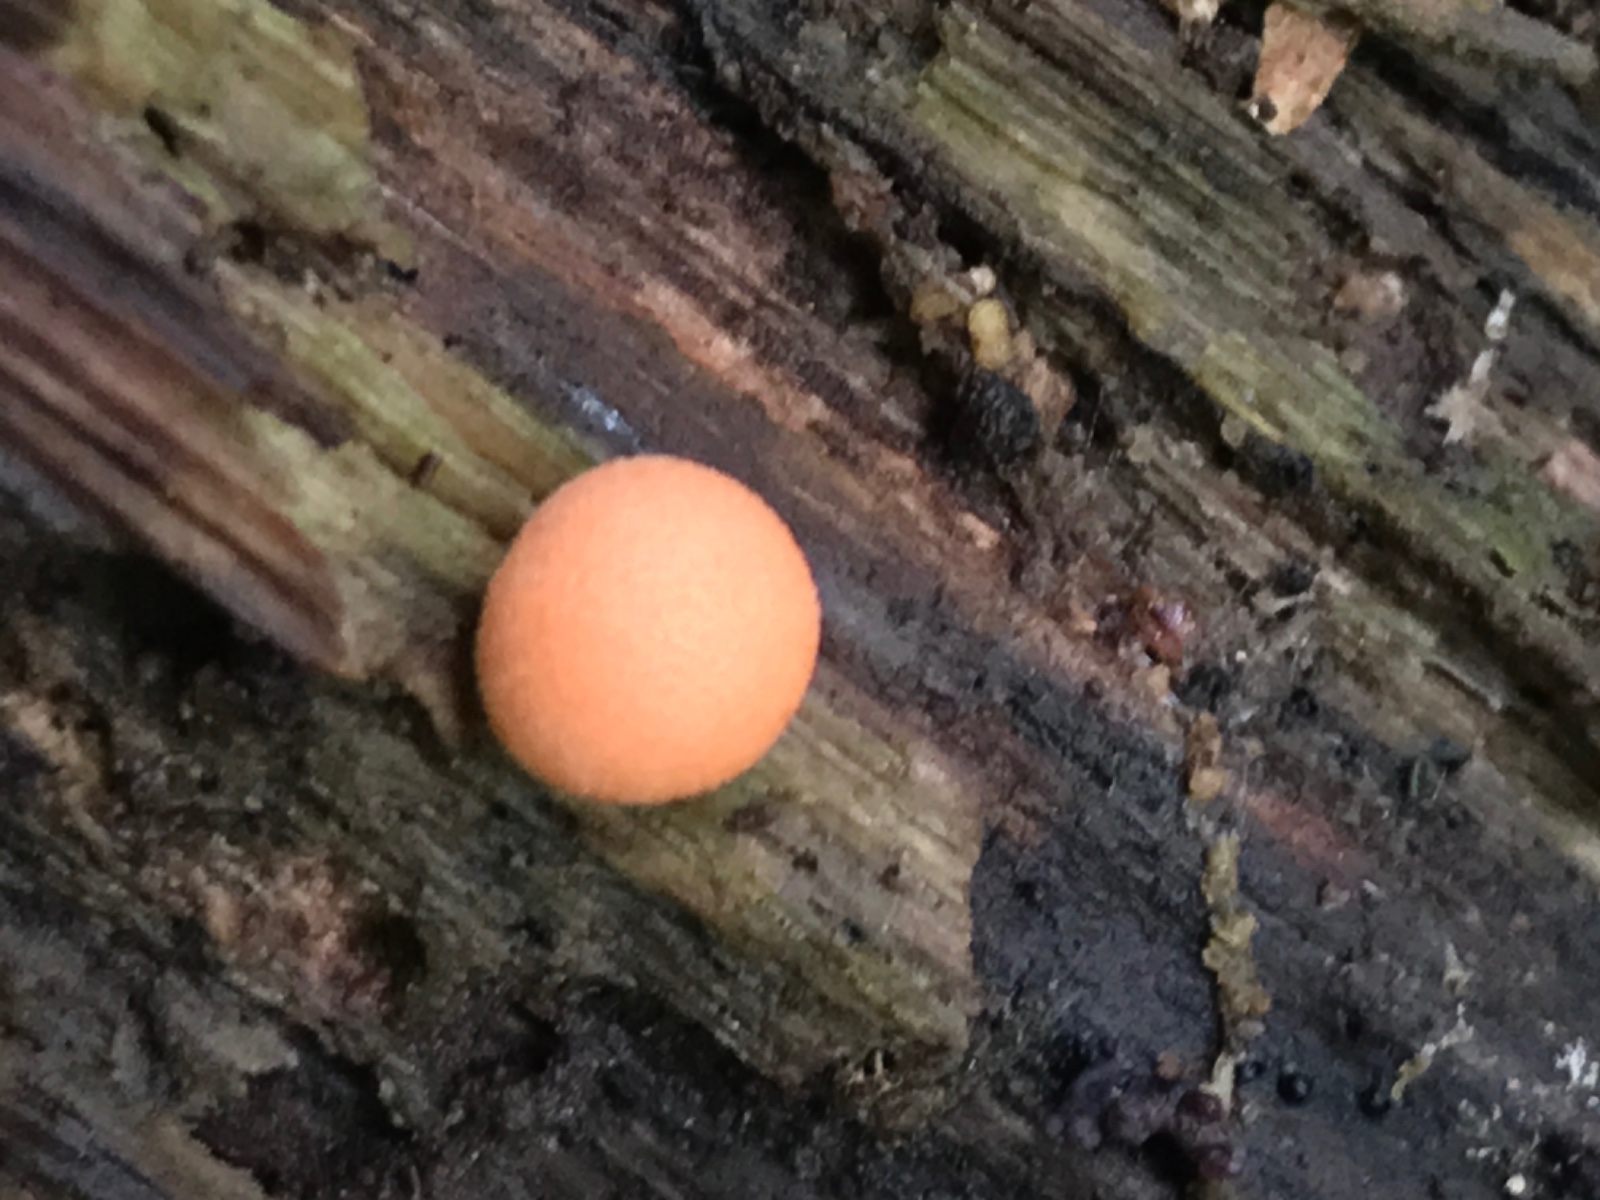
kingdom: Protozoa
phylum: Mycetozoa
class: Myxomycetes
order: Cribrariales
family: Tubiferaceae
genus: Lycogala
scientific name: Lycogala epidendrum
